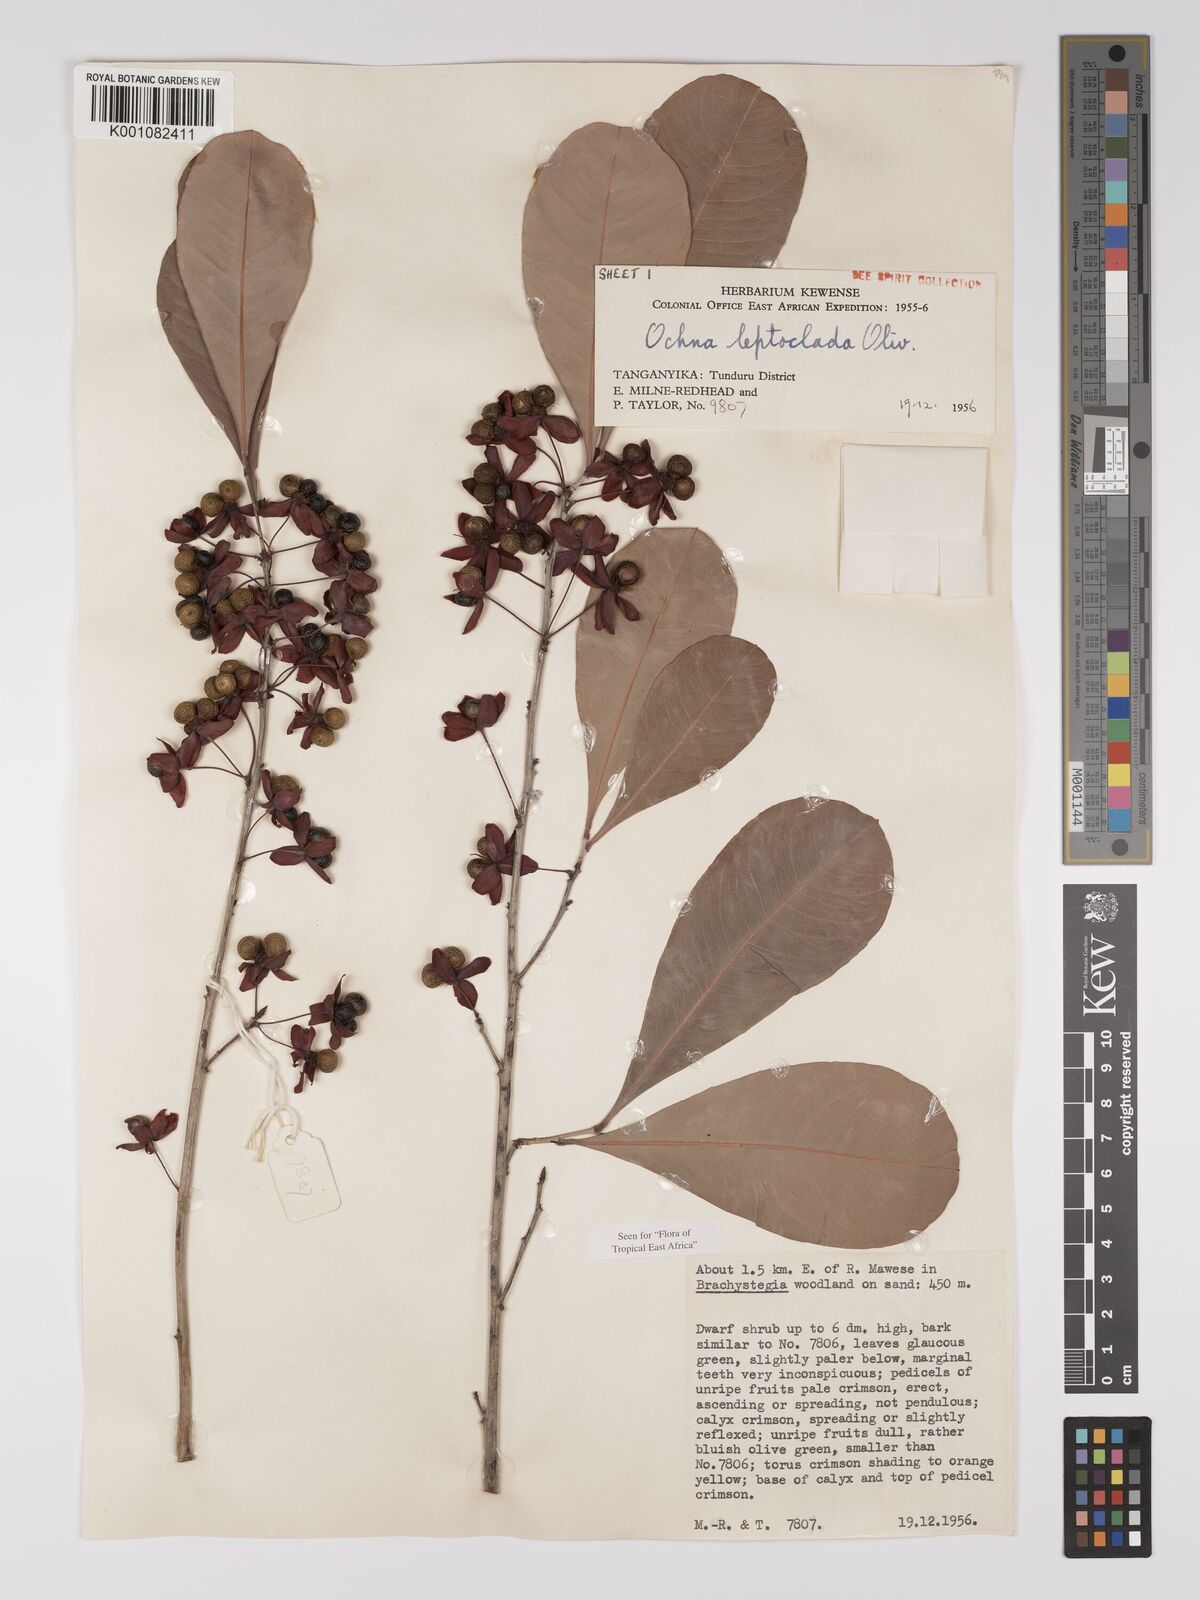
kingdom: Plantae
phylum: Tracheophyta
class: Magnoliopsida
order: Malpighiales
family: Ochnaceae
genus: Ochna
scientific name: Ochna leptoclada
